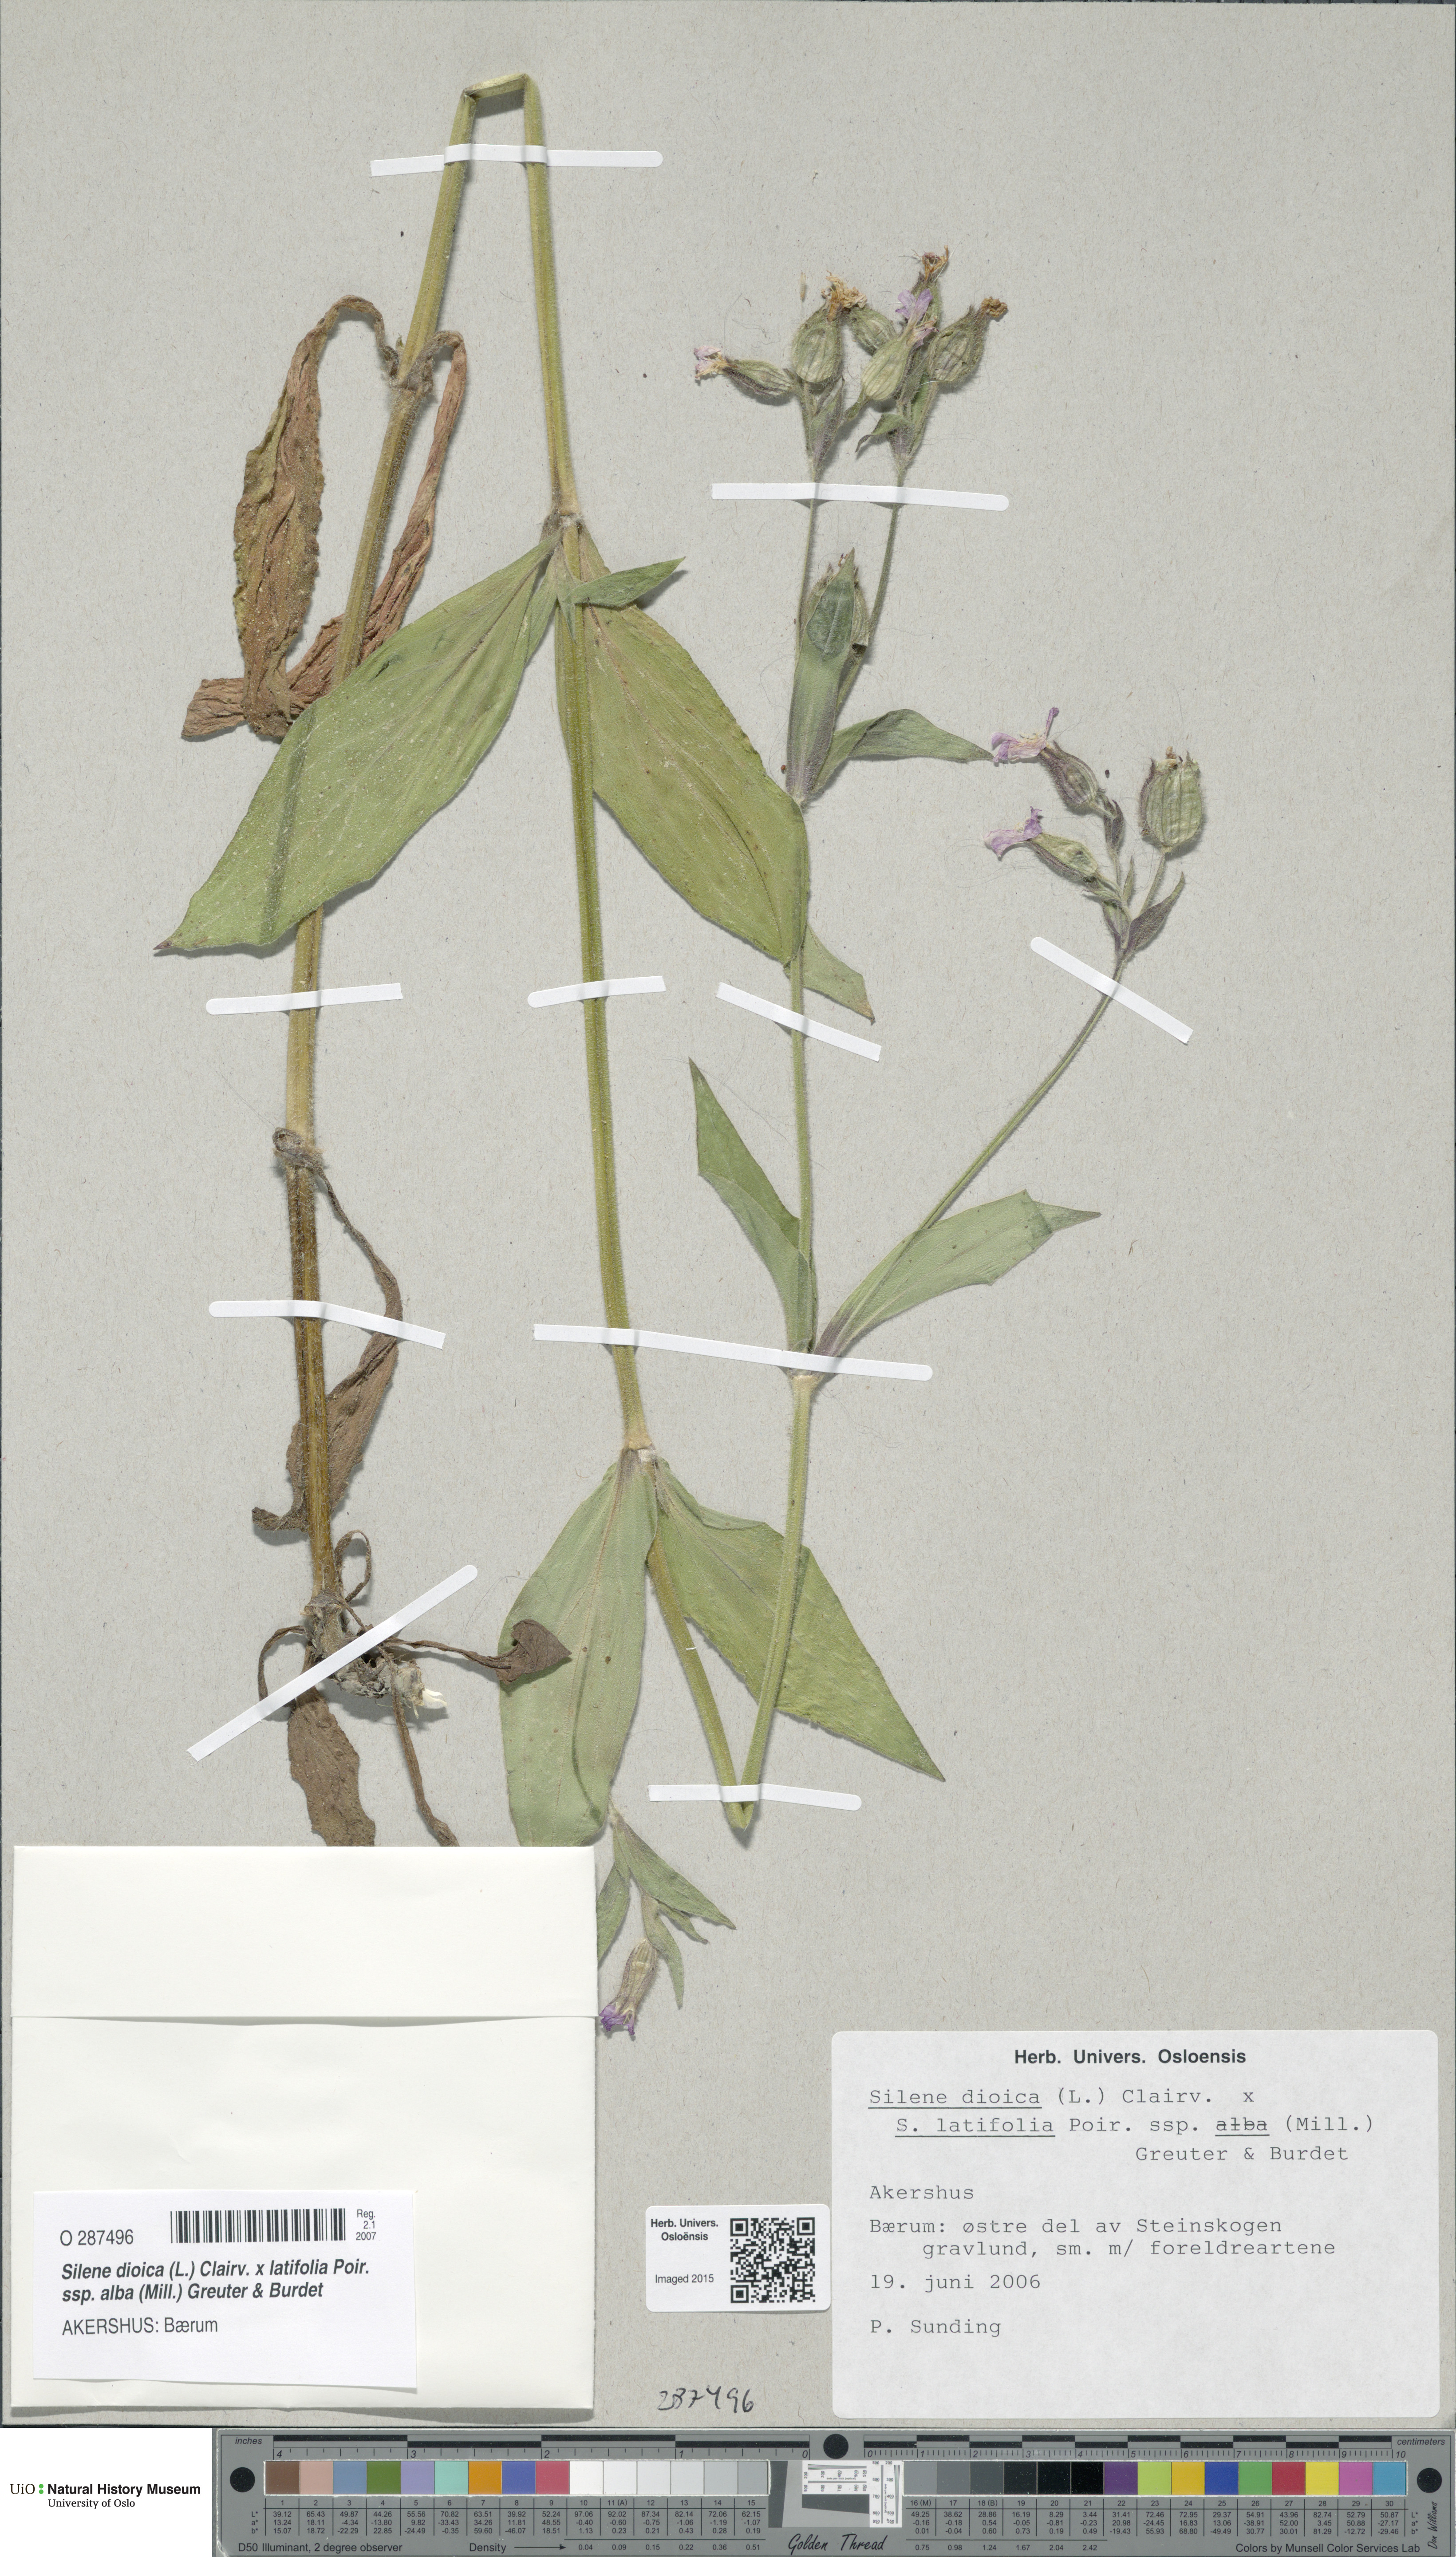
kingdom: Plantae
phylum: Tracheophyta
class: Magnoliopsida
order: Caryophyllales
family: Caryophyllaceae
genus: Silene
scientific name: Silene
